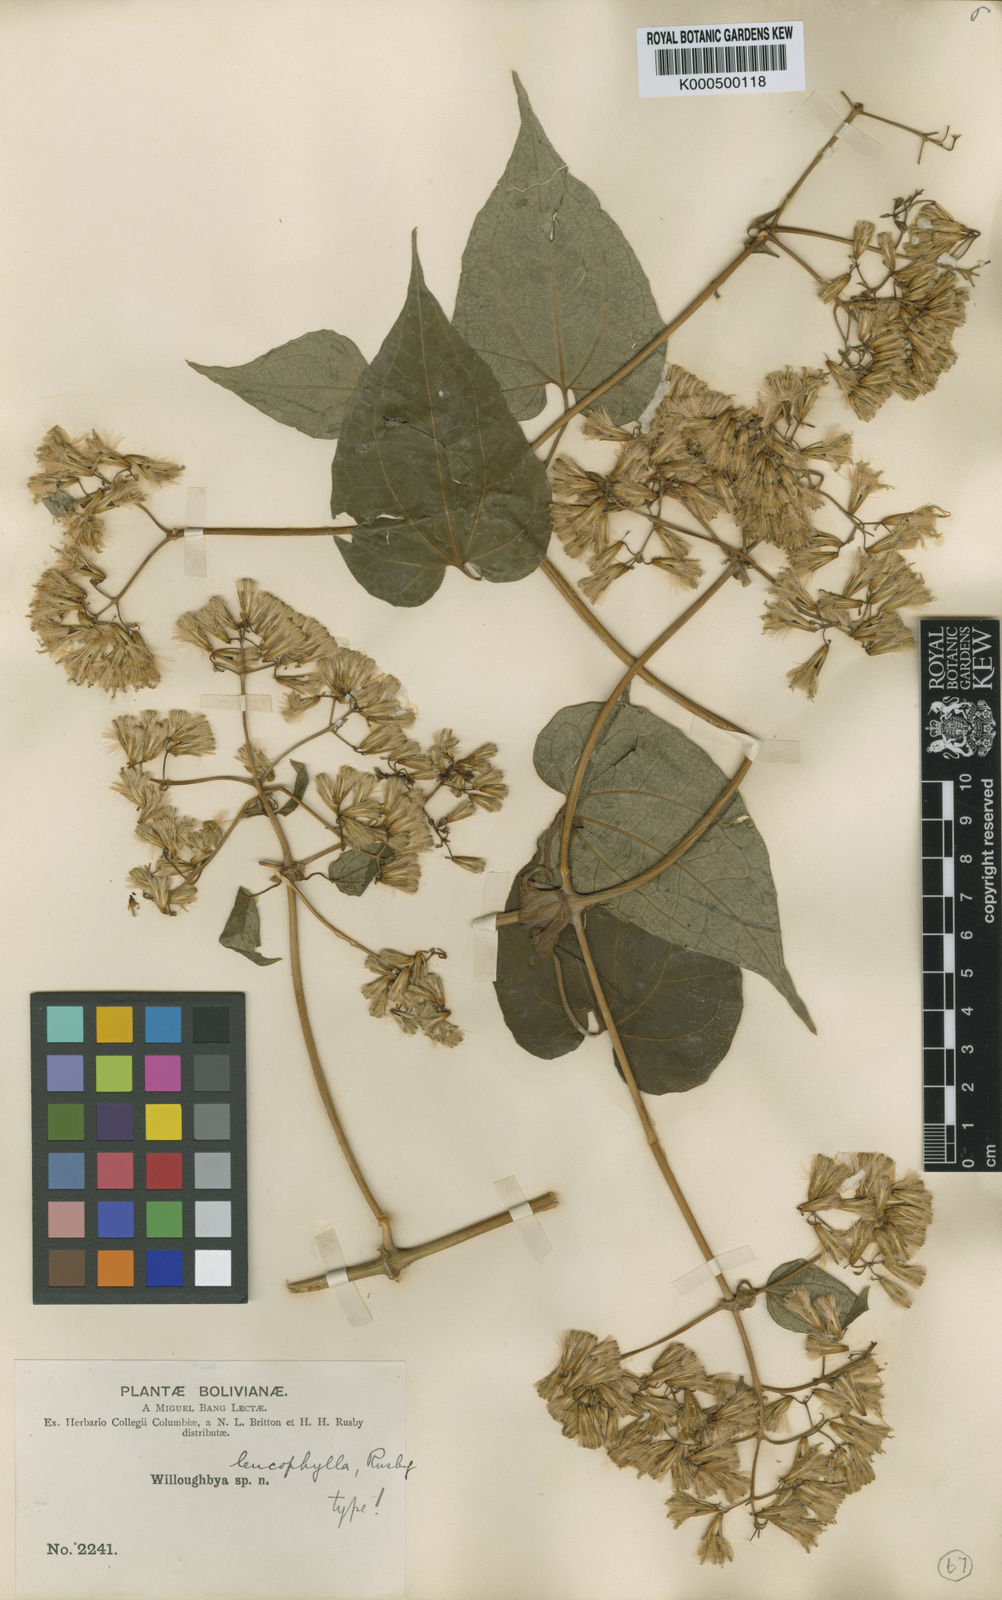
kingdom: Plantae
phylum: Tracheophyta
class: Magnoliopsida
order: Asterales
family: Asteraceae
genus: Mikania
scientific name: Mikania leucophylla
